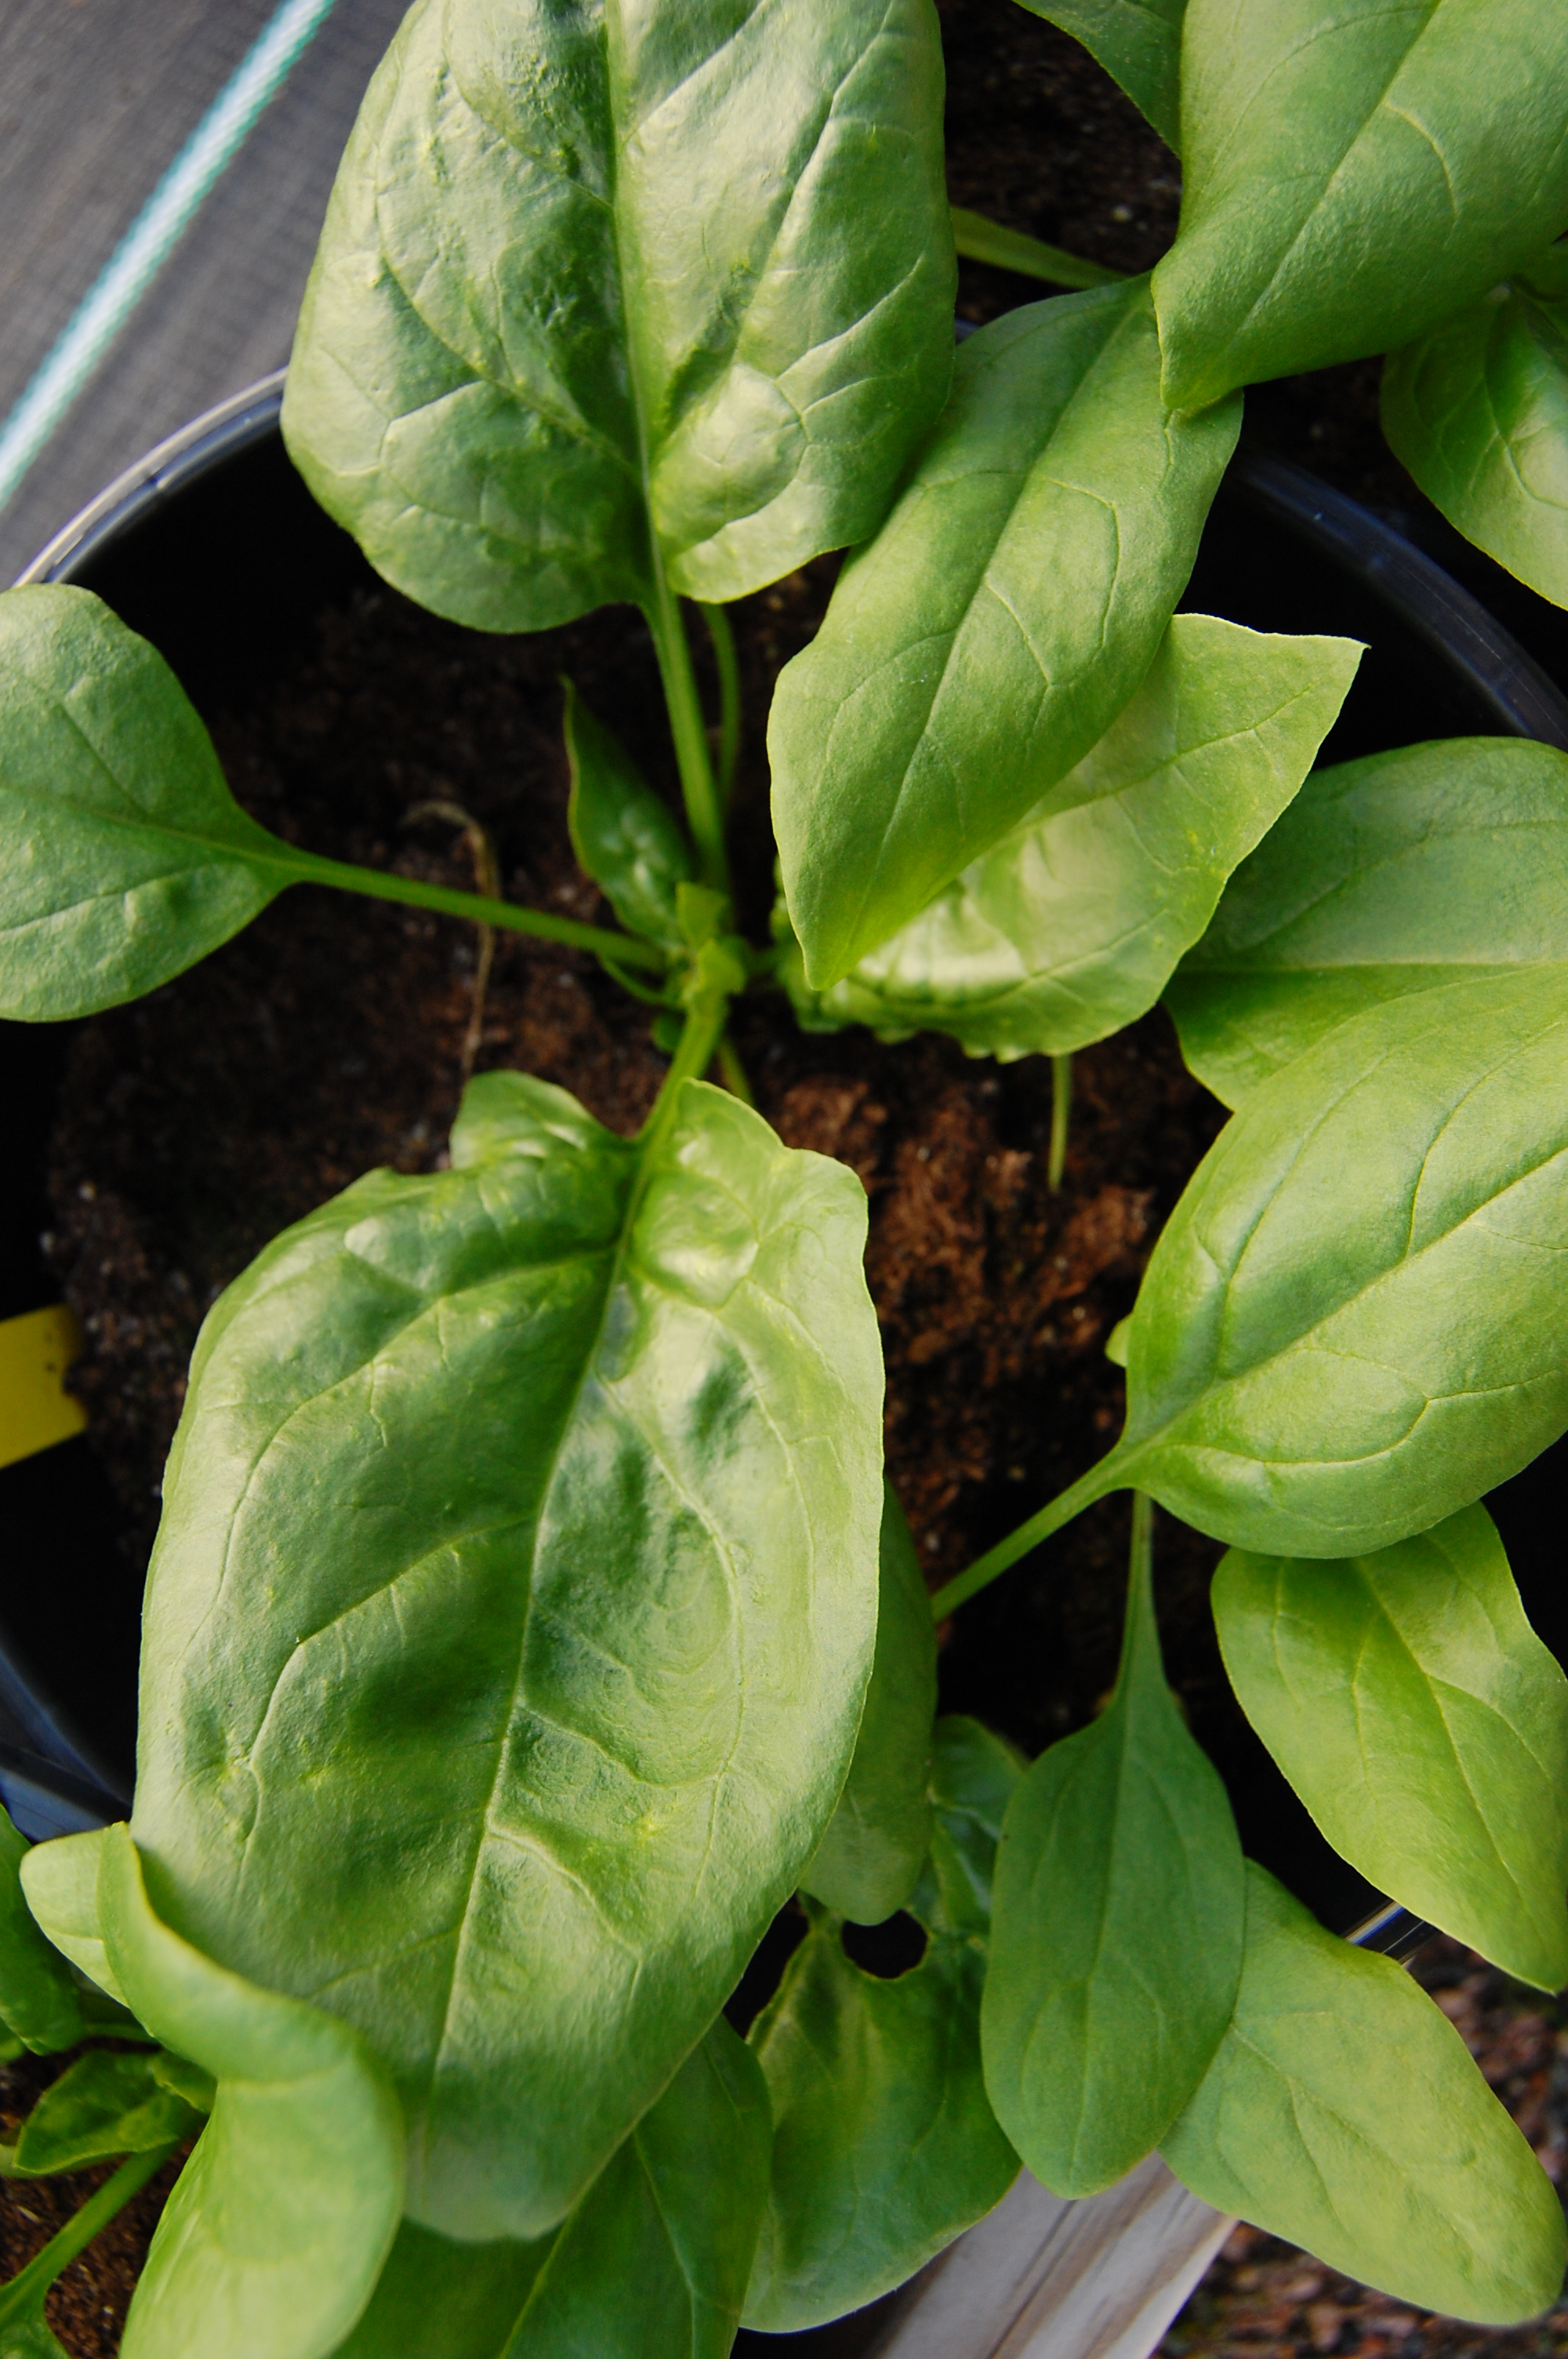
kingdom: Plantae
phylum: Tracheophyta
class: Magnoliopsida
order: Caryophyllales
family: Amaranthaceae
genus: Spinacia
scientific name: Spinacia oleracea
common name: Spinach
